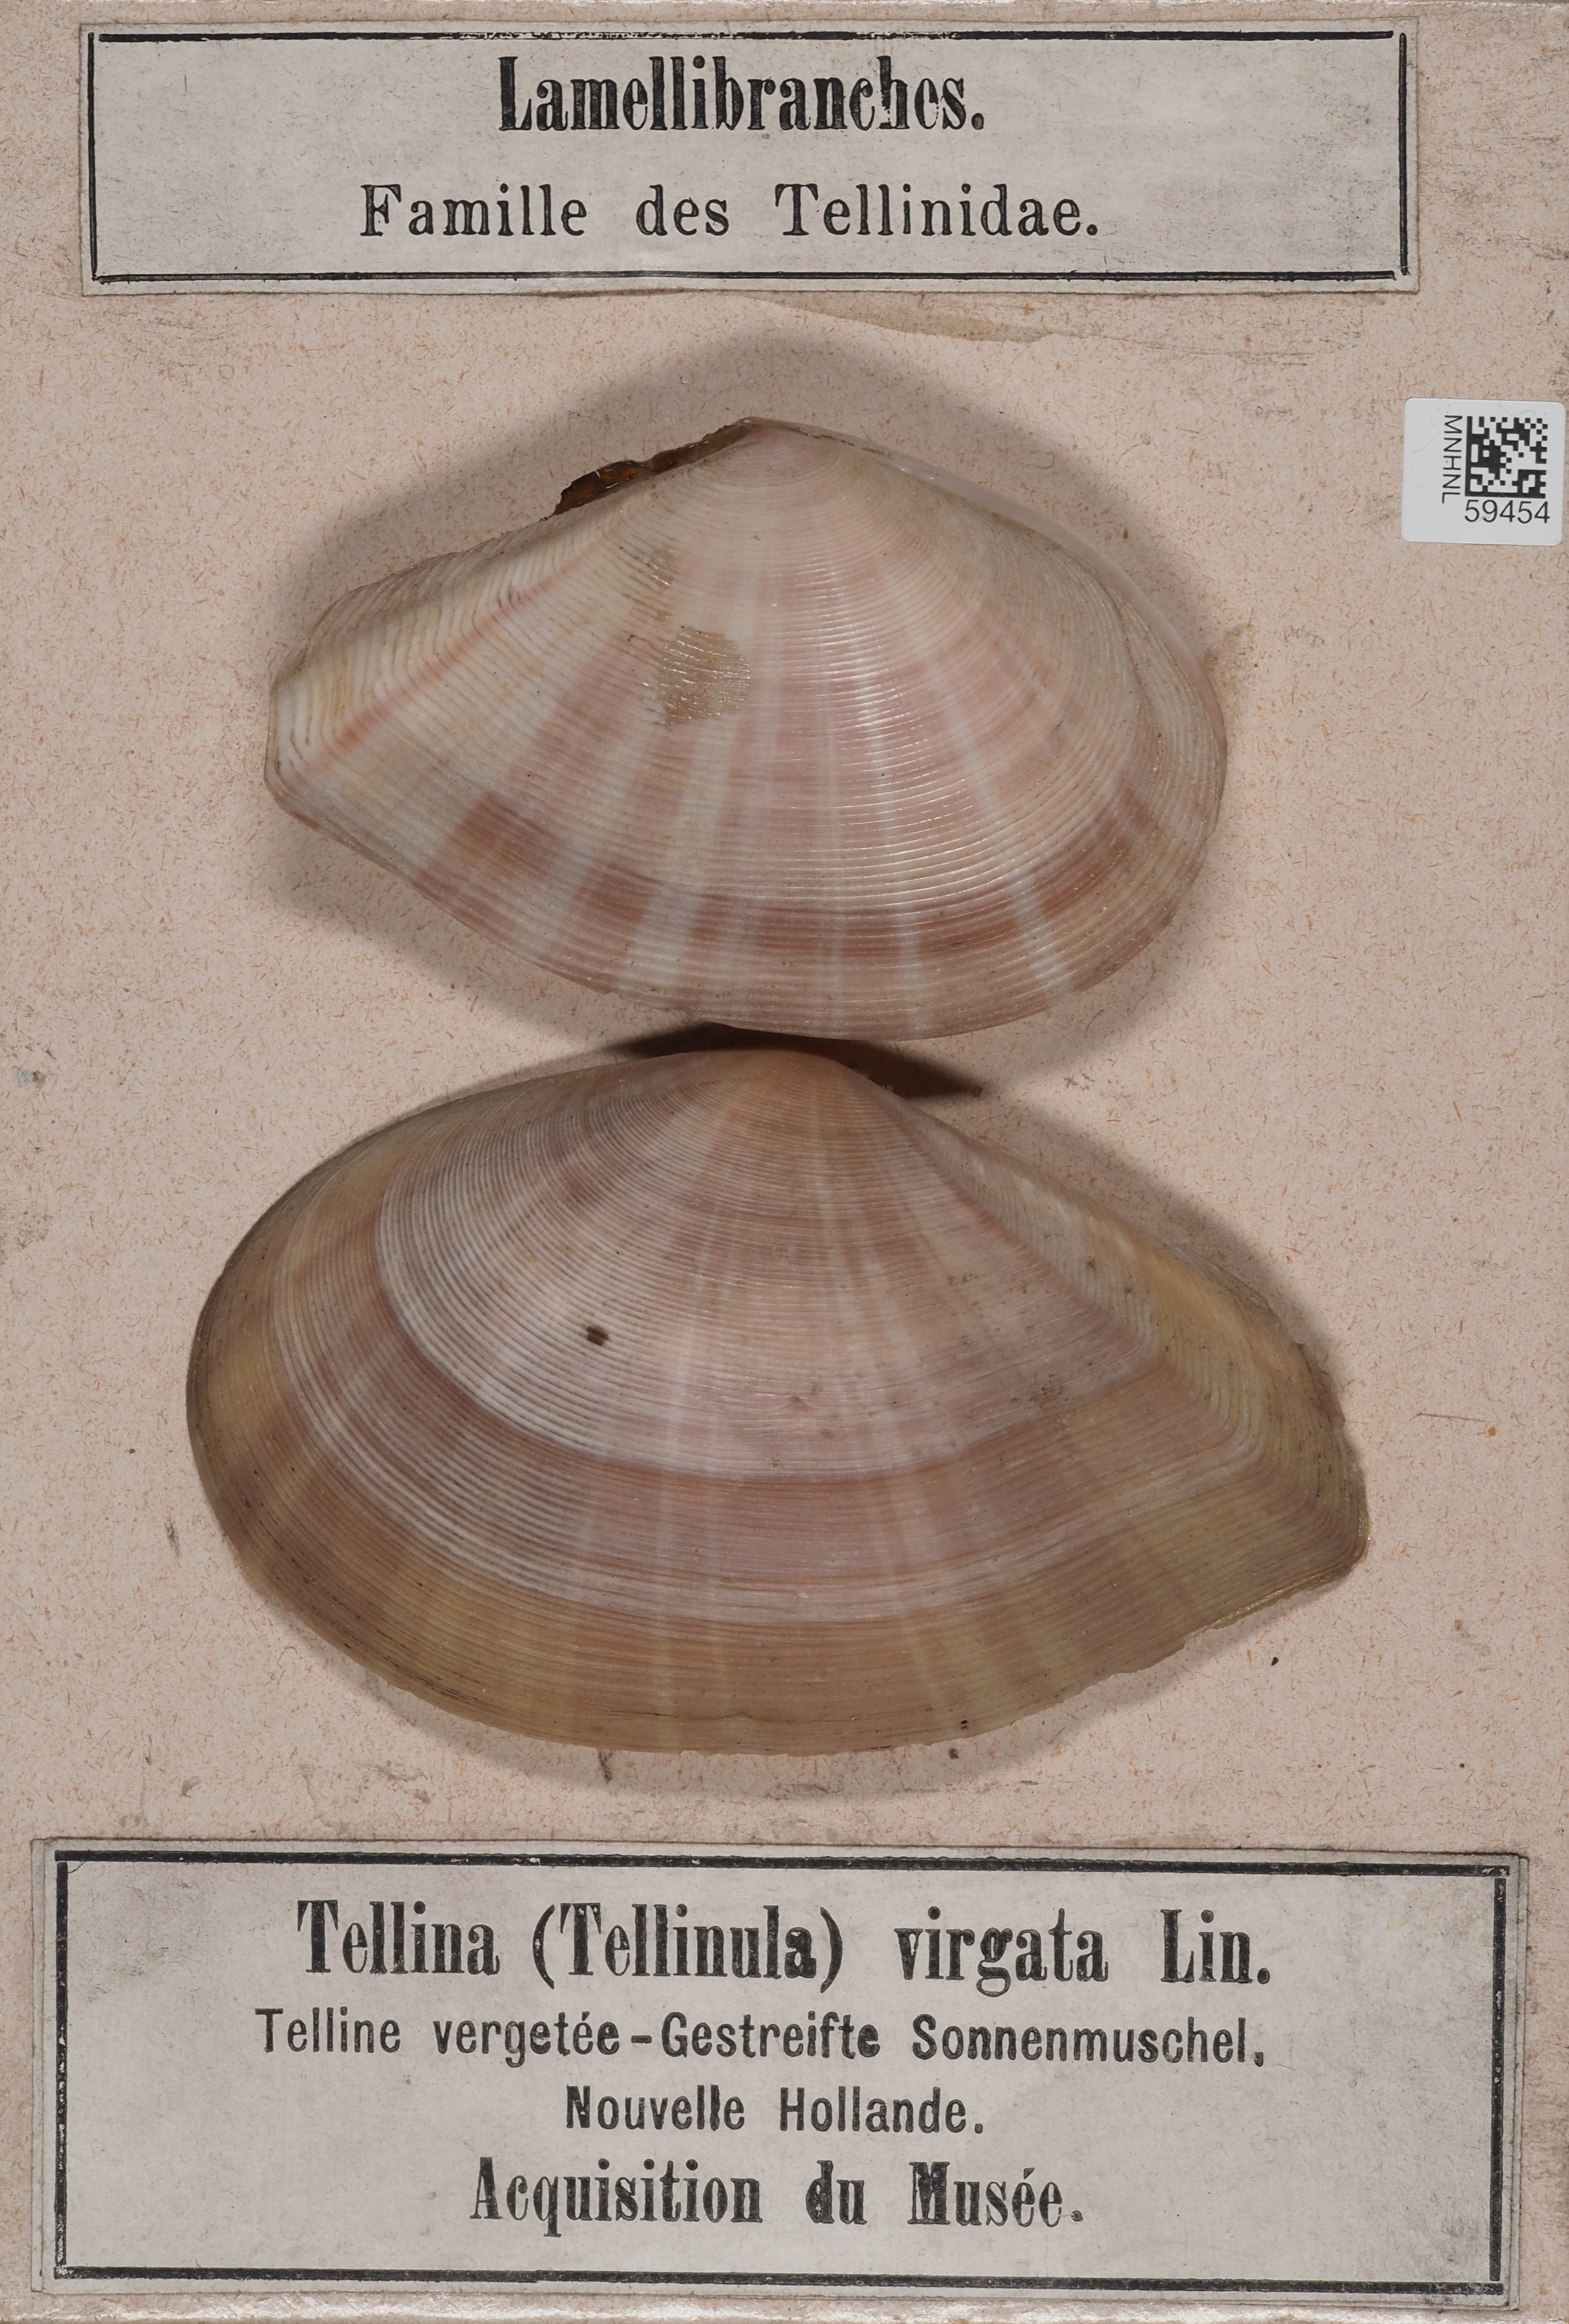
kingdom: Animalia
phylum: Mollusca
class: Bivalvia
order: Cardiida
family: Tellinidae
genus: Tellinella
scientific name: Tellinella virgata
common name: Striped tellin
